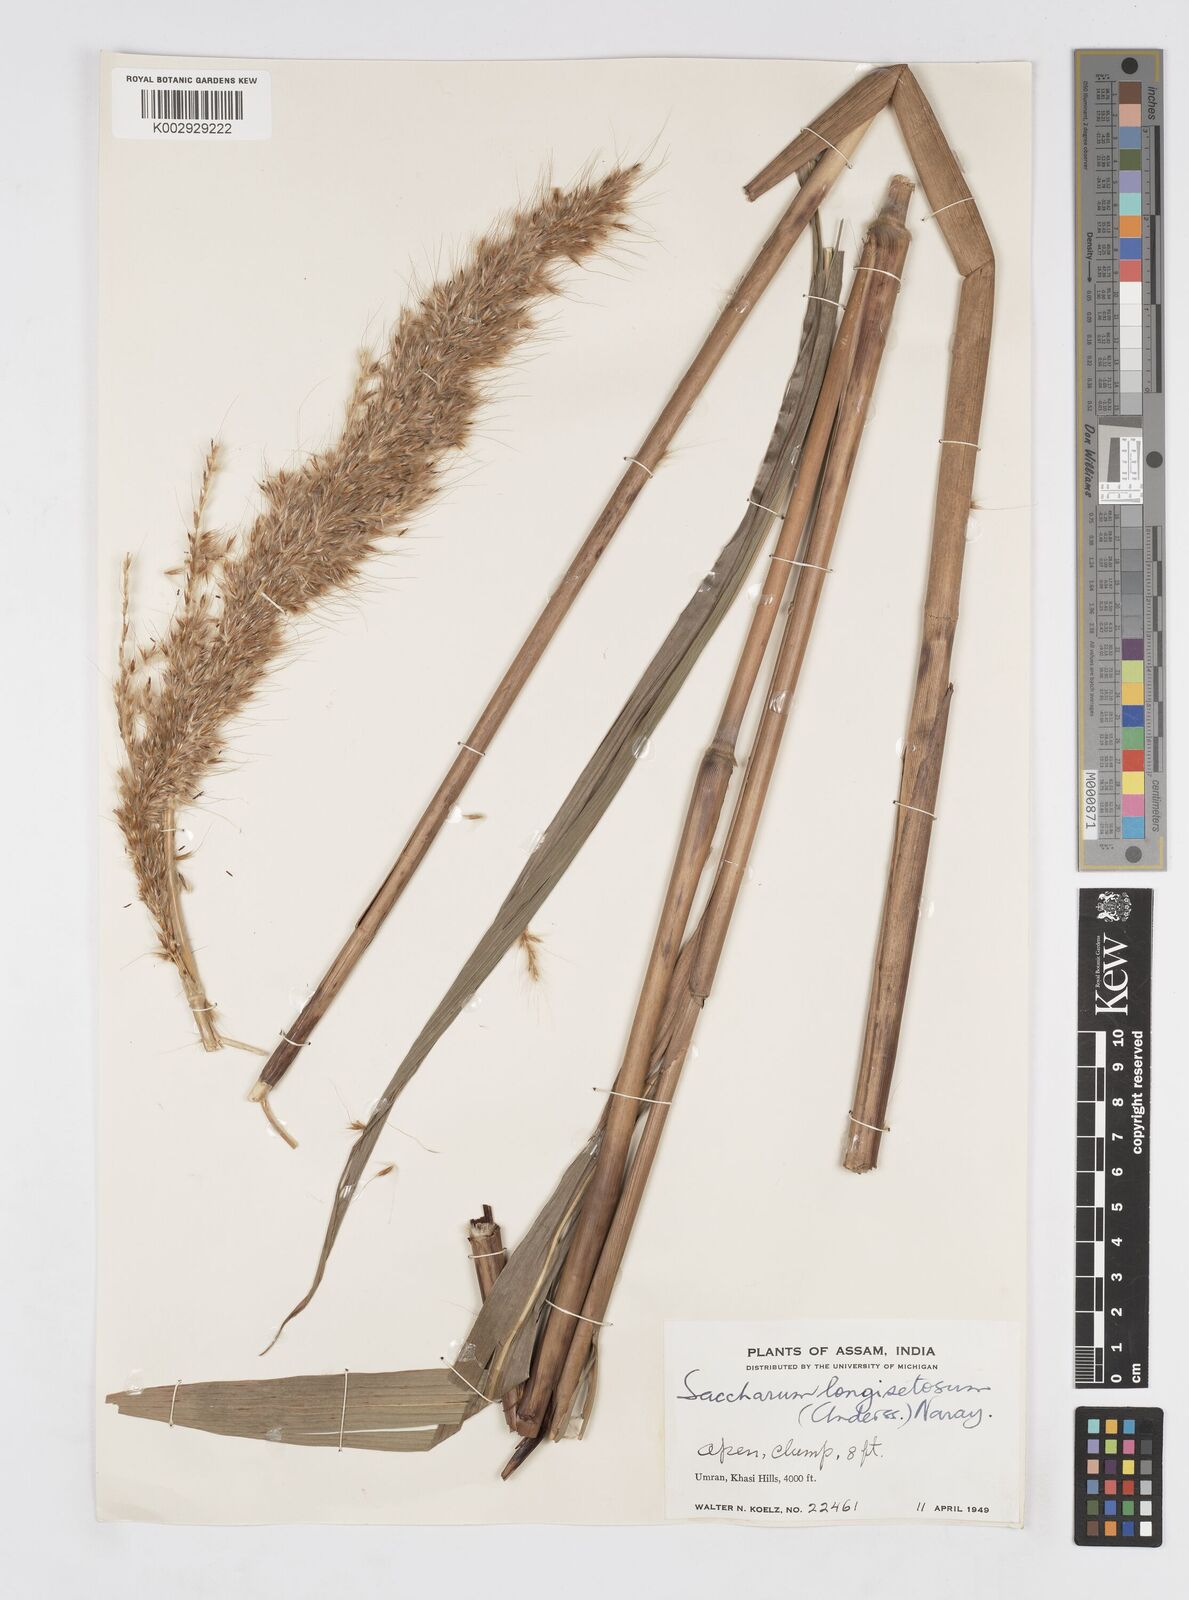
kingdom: Plantae
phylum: Tracheophyta
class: Liliopsida
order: Poales
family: Poaceae
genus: Melinis
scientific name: Melinis longiseta
